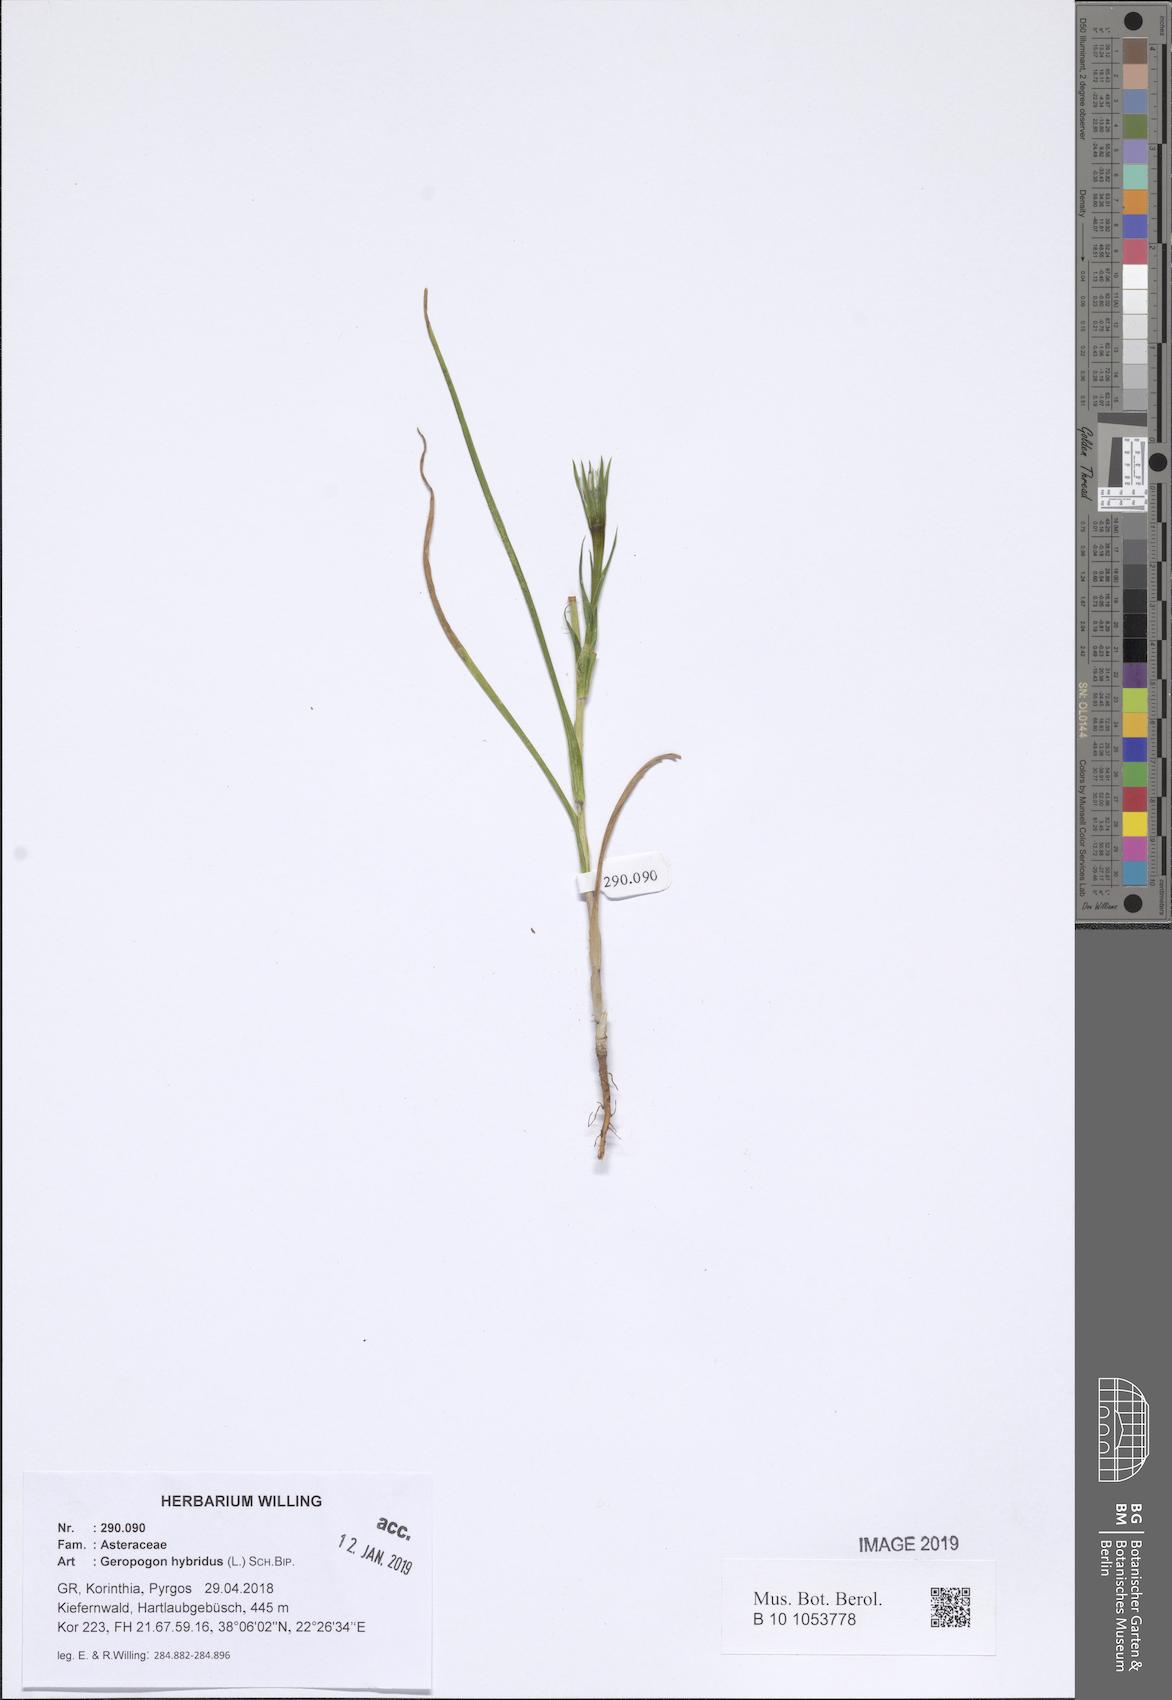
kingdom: Plantae
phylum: Tracheophyta
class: Magnoliopsida
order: Asterales
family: Asteraceae
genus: Geropogon
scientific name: Geropogon hybridus
